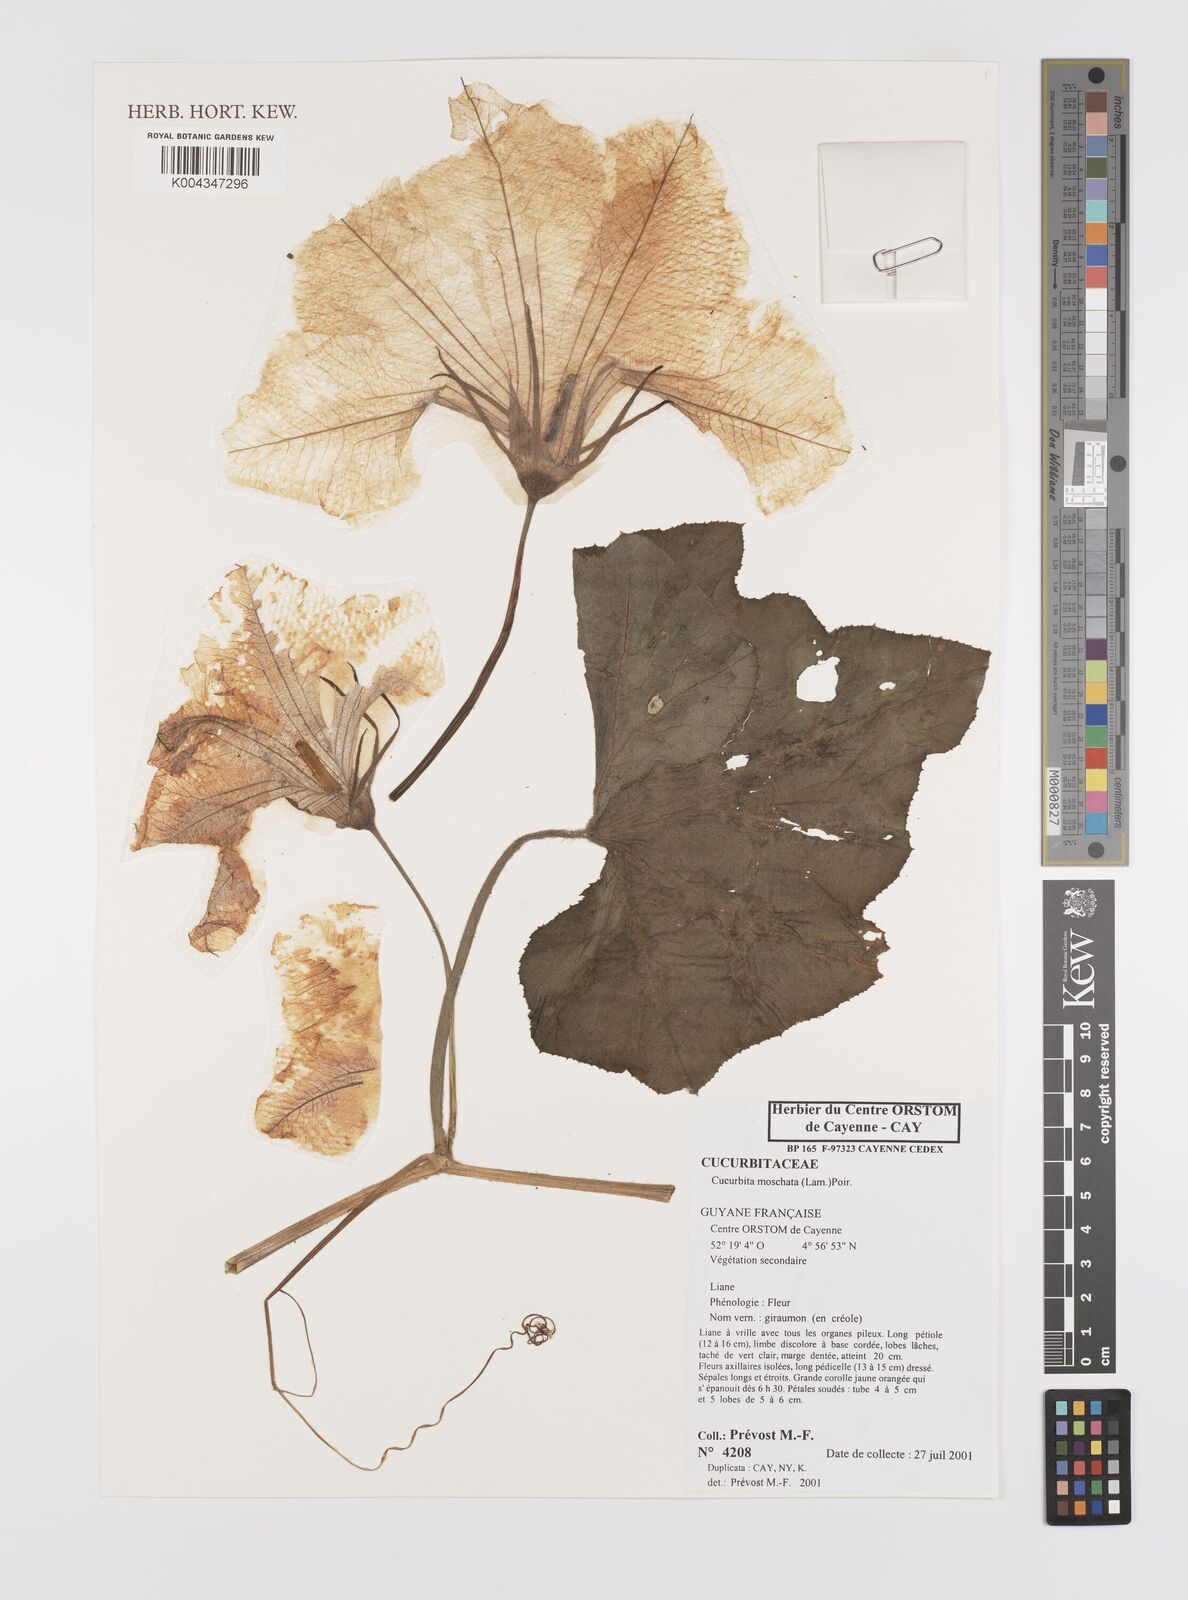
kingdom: Plantae
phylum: Tracheophyta
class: Magnoliopsida
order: Cucurbitales
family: Cucurbitaceae
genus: Cucurbita
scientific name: Cucurbita moschata
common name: Squash / pumpkin
